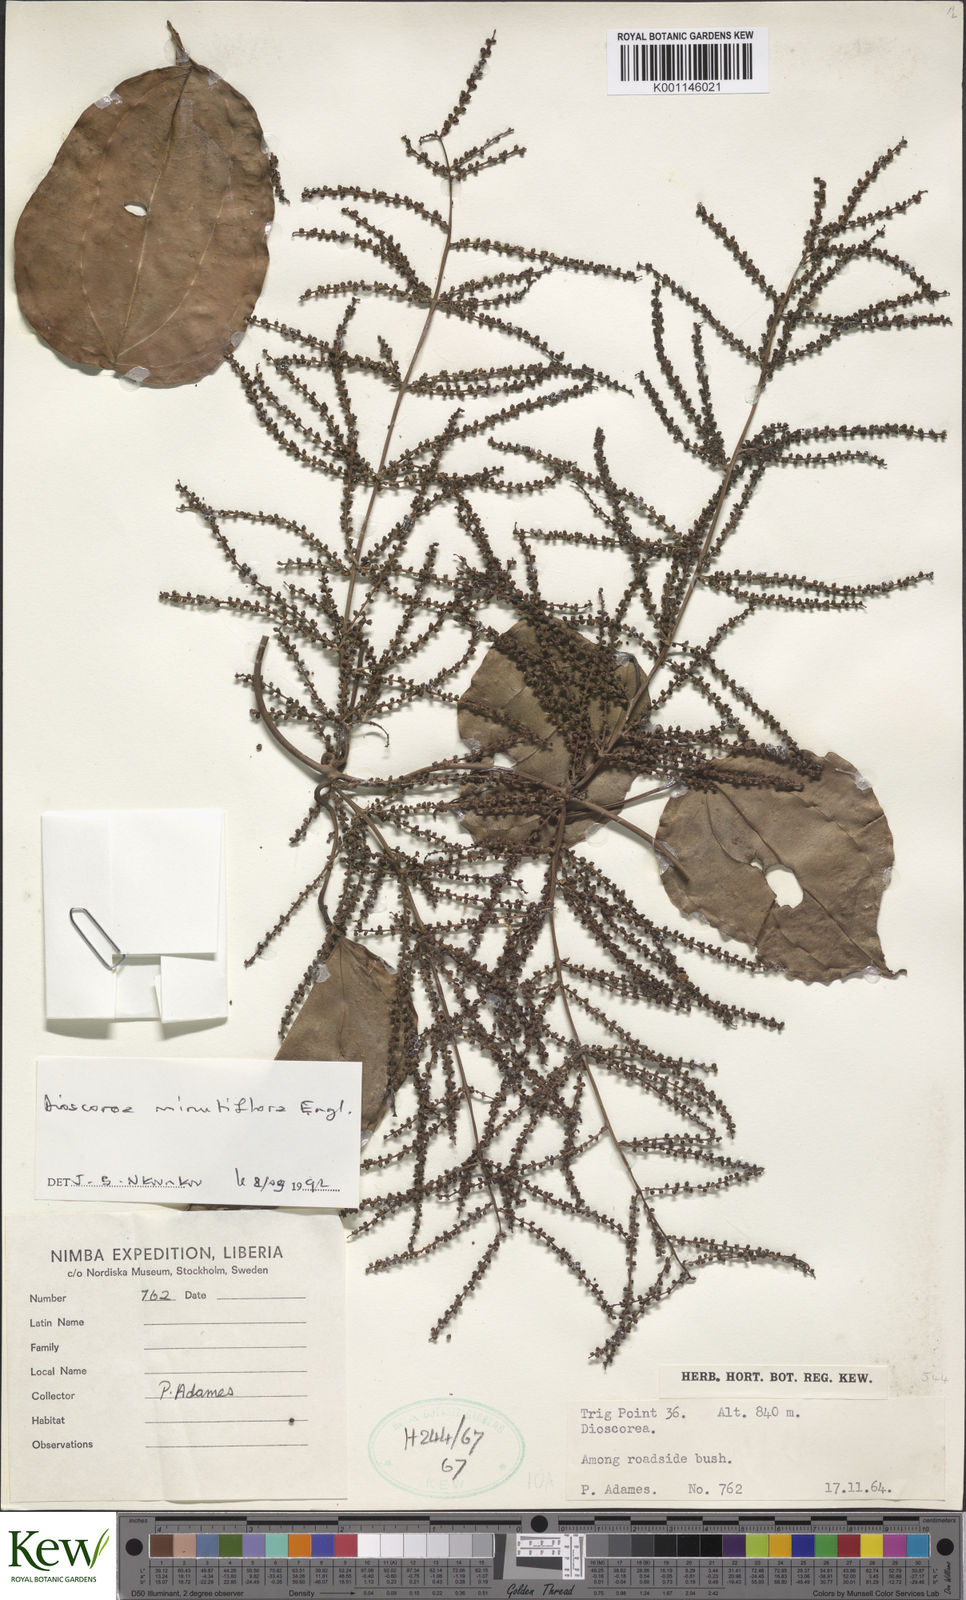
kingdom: Plantae
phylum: Tracheophyta
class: Liliopsida
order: Dioscoreales
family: Dioscoreaceae
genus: Dioscorea
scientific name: Dioscorea minutiflora
